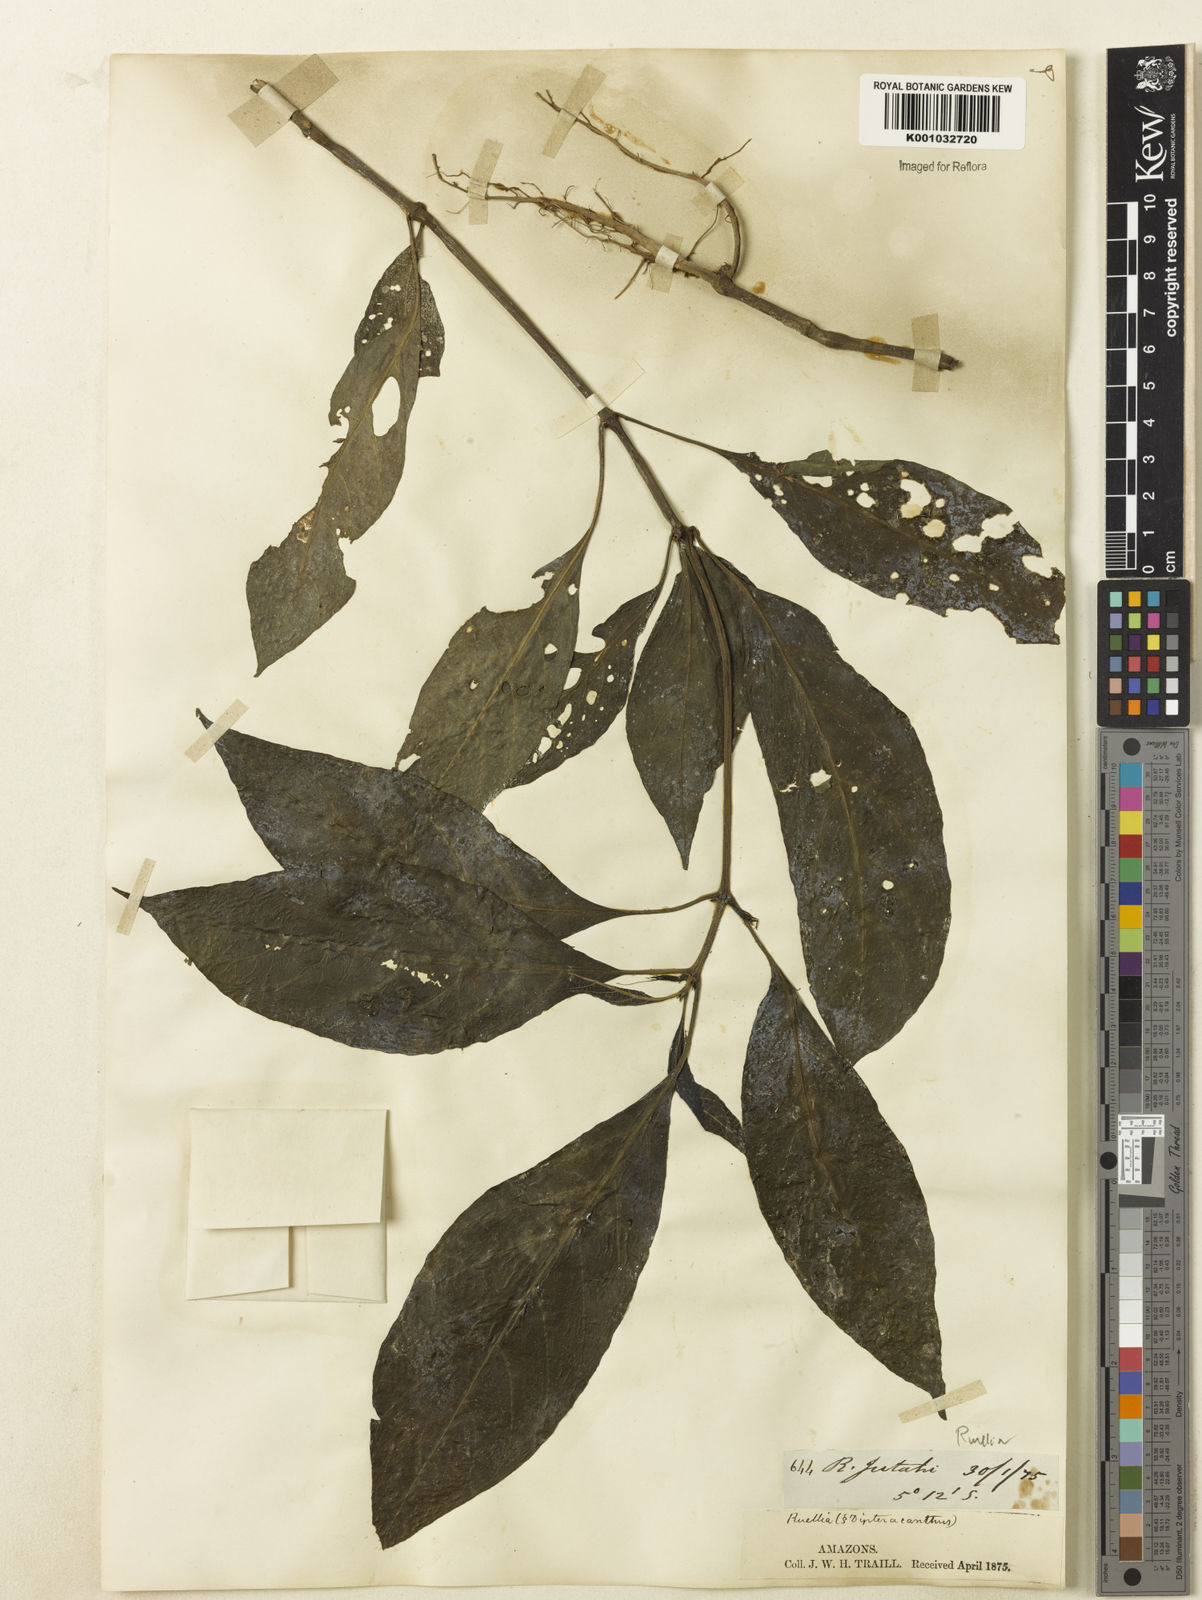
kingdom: Plantae
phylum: Tracheophyta
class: Magnoliopsida
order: Lamiales
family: Acanthaceae
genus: Ruellia
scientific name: Ruellia
